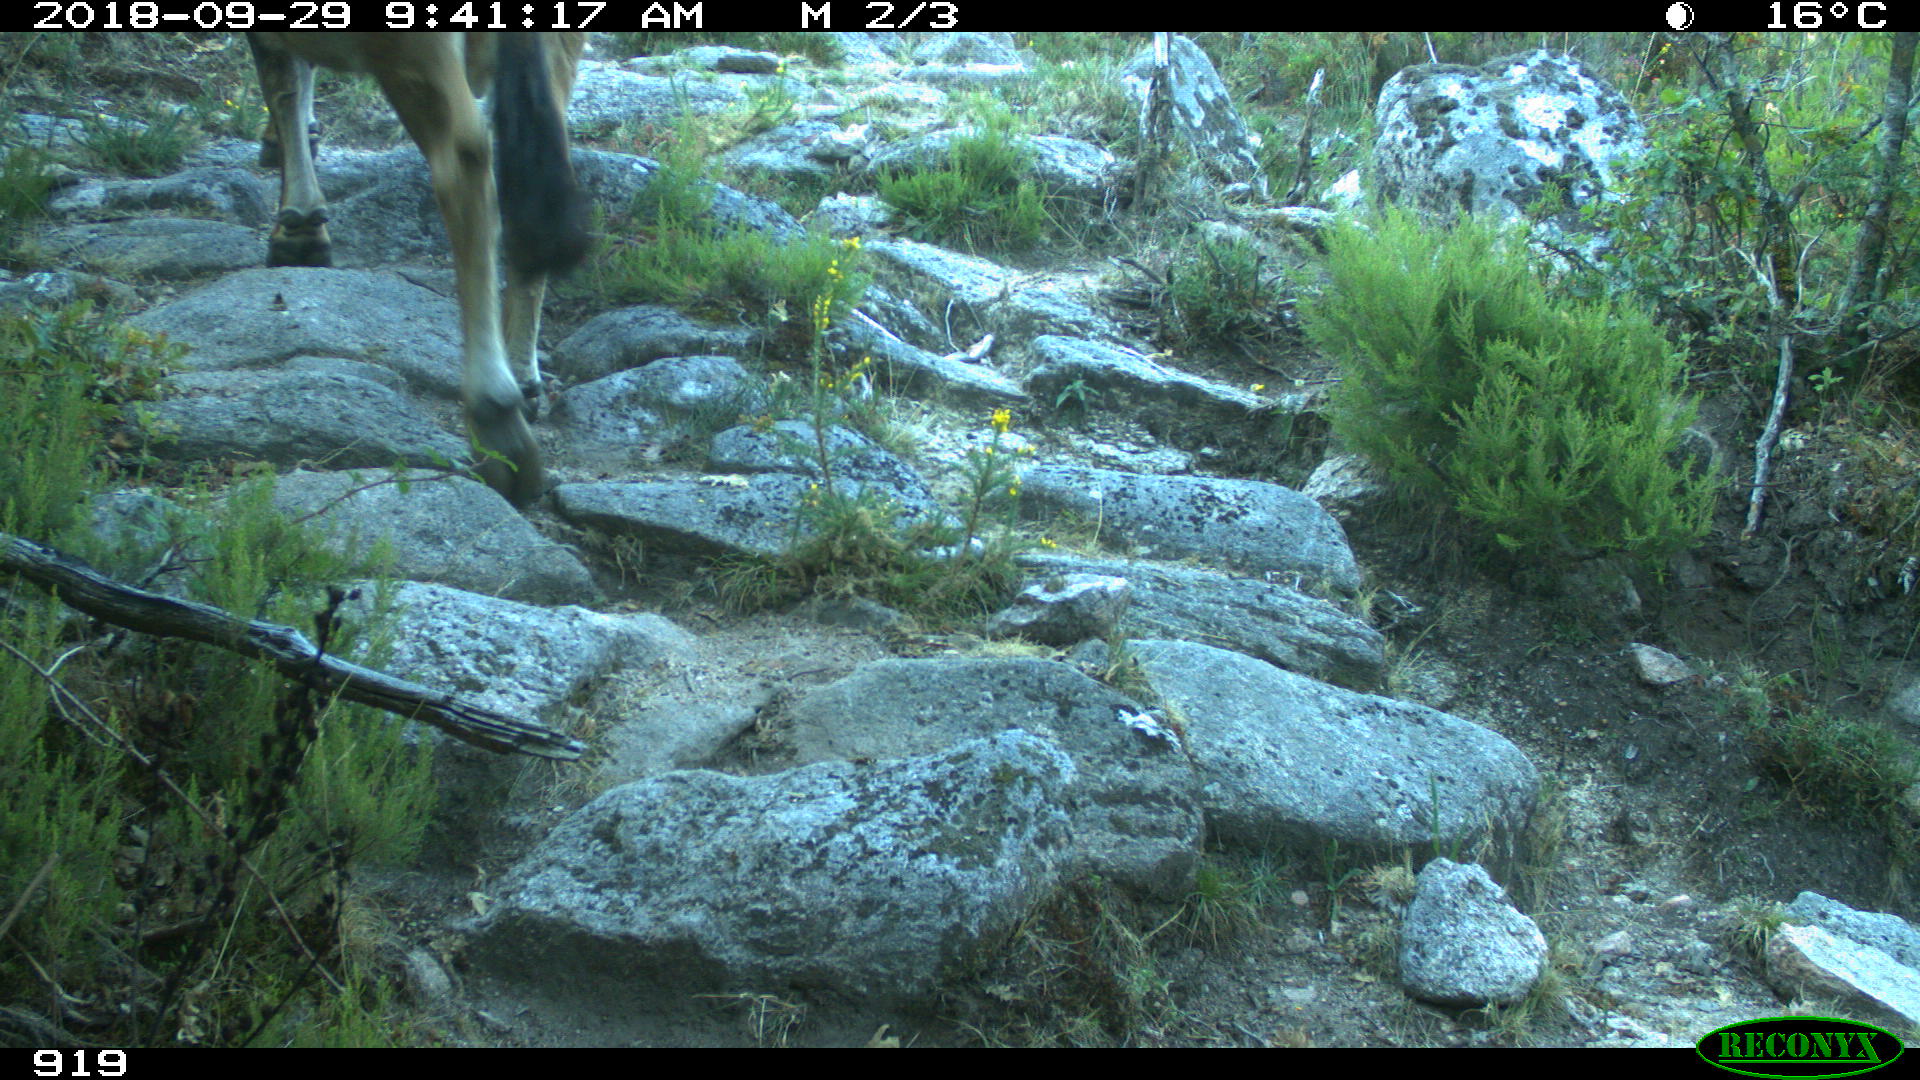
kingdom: Animalia
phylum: Chordata
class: Mammalia
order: Artiodactyla
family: Bovidae
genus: Bos
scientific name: Bos taurus
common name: Domesticated cattle
